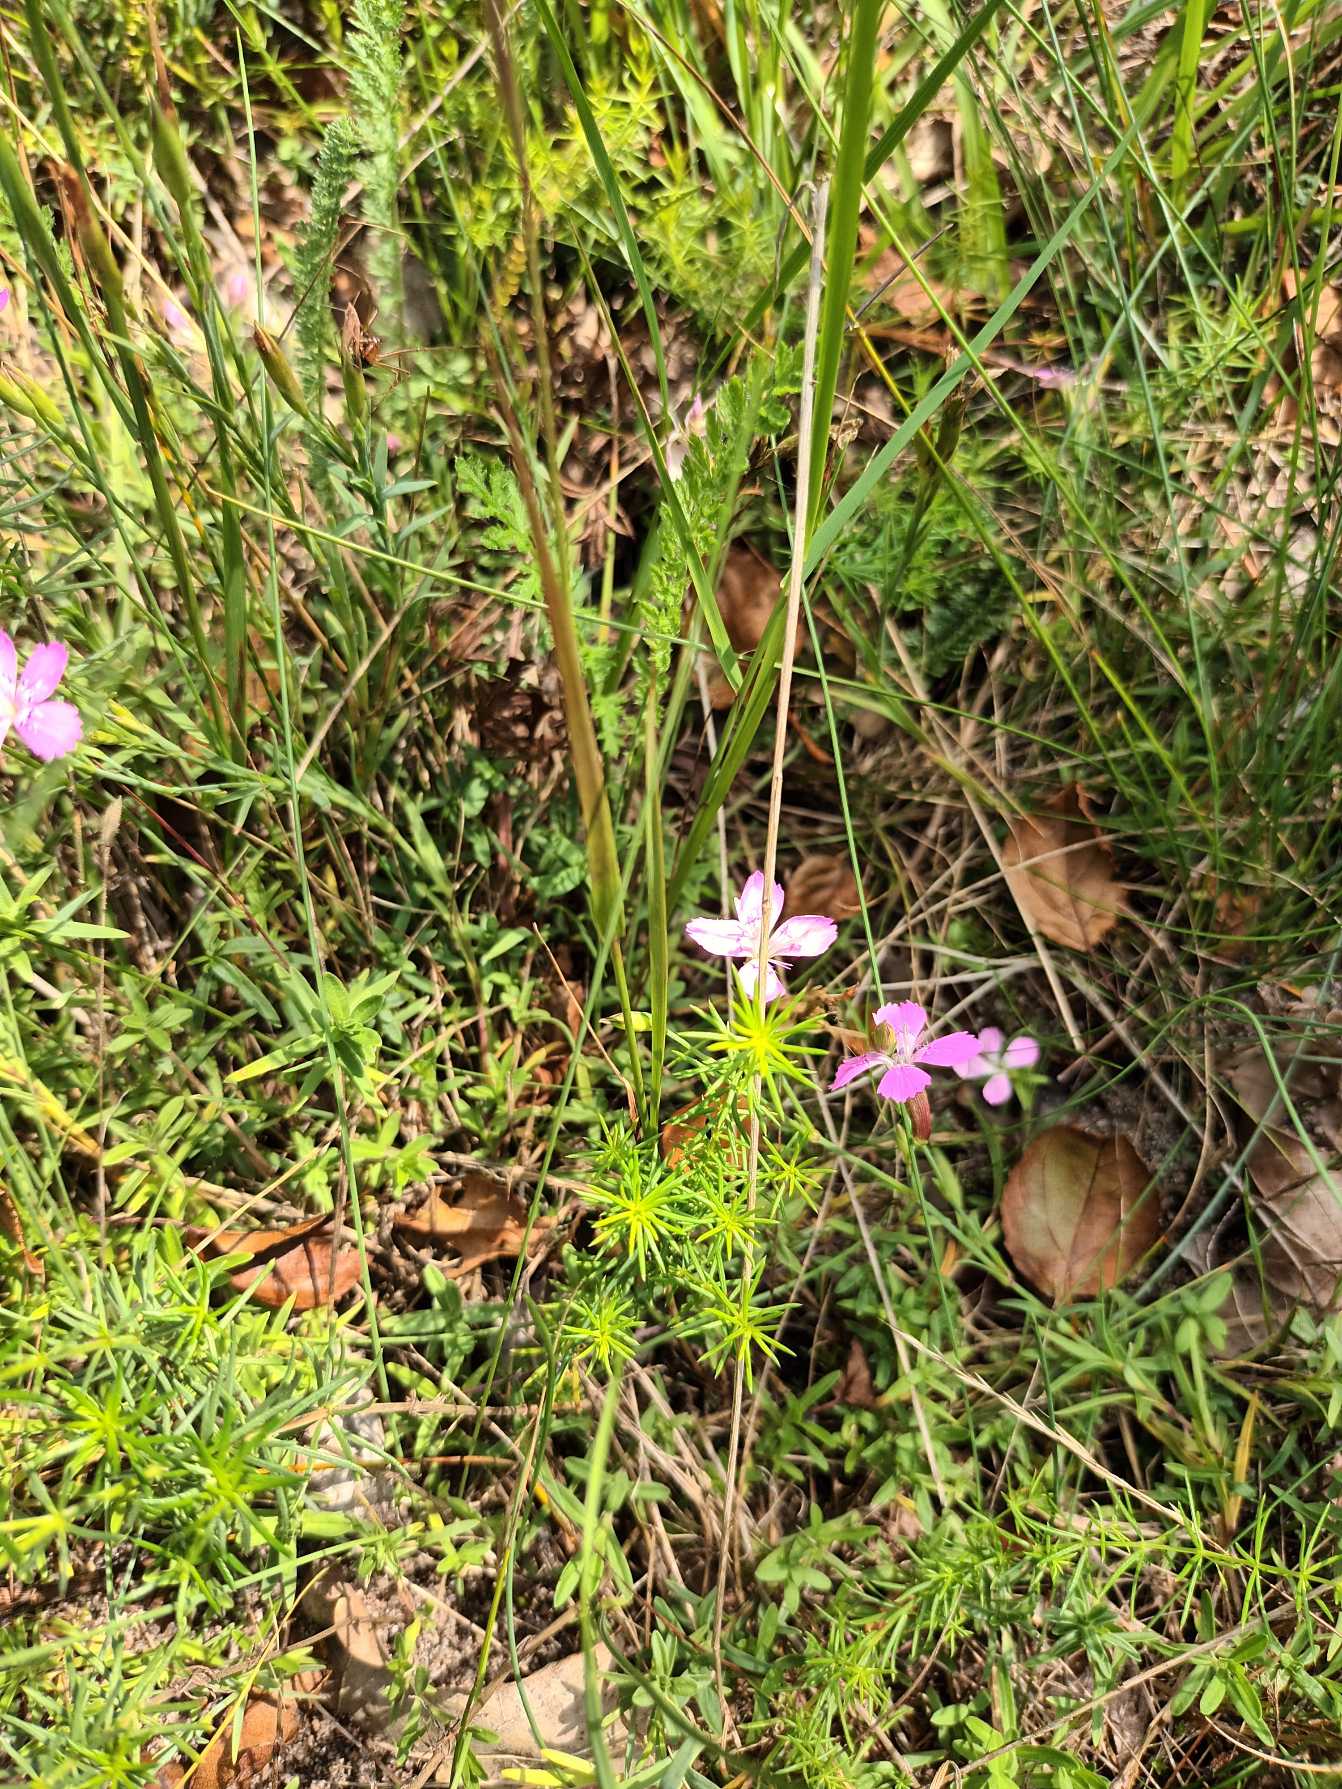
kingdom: Plantae
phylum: Tracheophyta
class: Magnoliopsida
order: Caryophyllales
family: Caryophyllaceae
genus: Dianthus
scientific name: Dianthus deltoides
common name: Bakke-nellike
